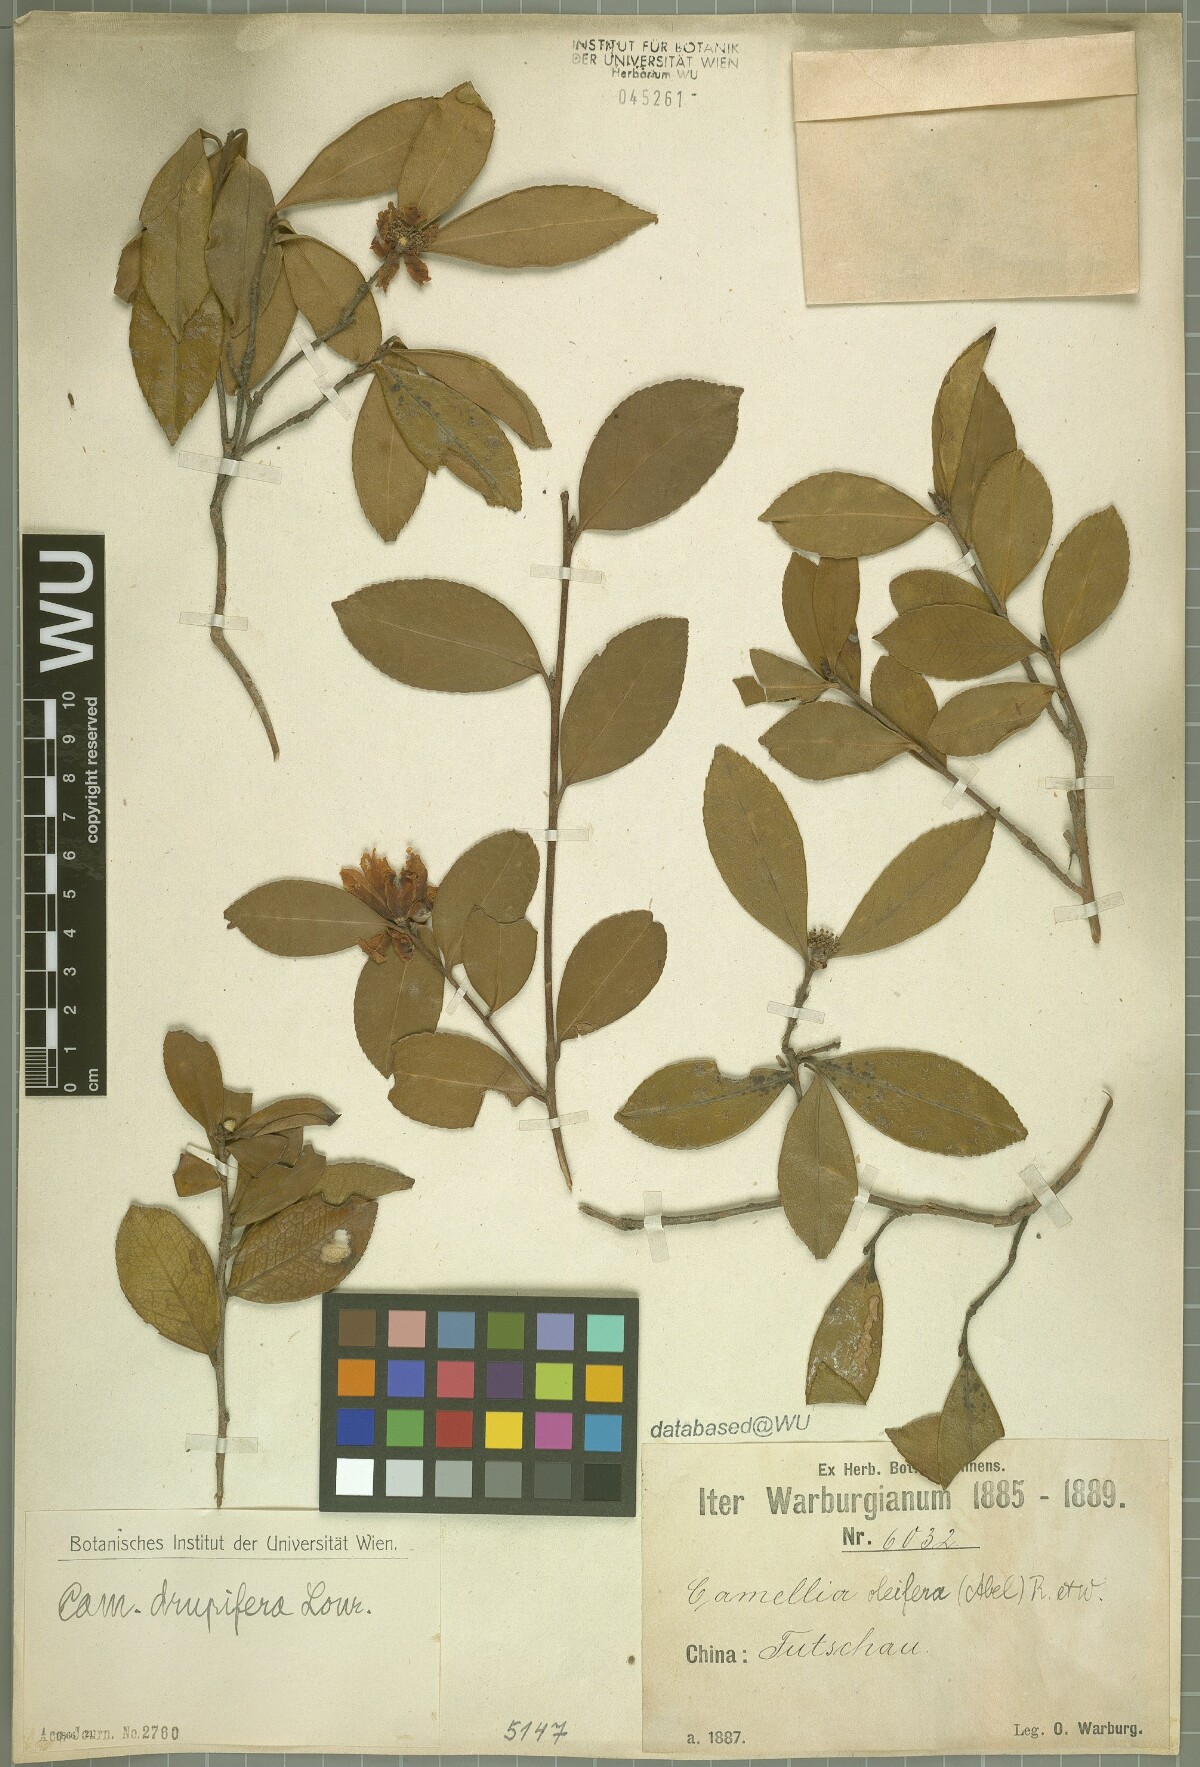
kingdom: Plantae
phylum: Tracheophyta
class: Magnoliopsida
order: Ericales
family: Theaceae
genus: Camellia
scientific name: Camellia drupifera
